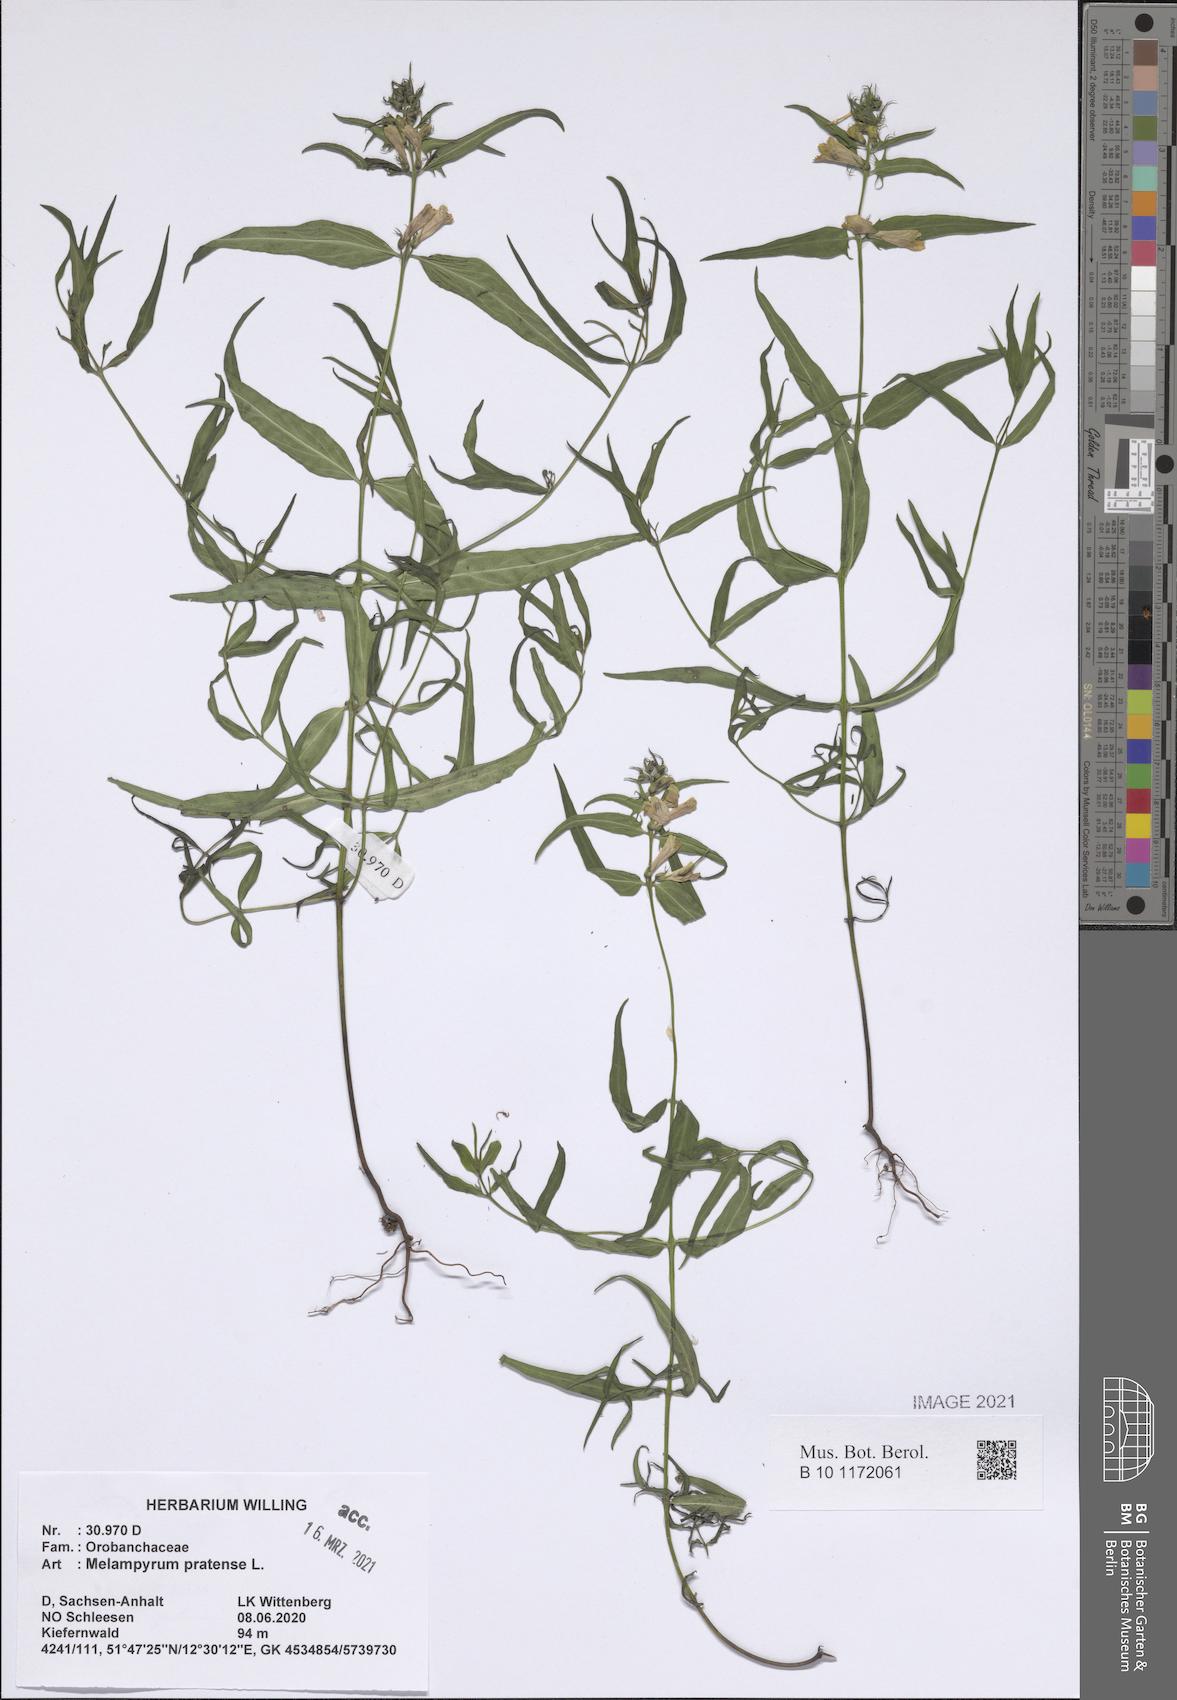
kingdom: Plantae
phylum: Tracheophyta
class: Magnoliopsida
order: Lamiales
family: Orobanchaceae
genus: Melampyrum
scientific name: Melampyrum pratense
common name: Common cow-wheat
